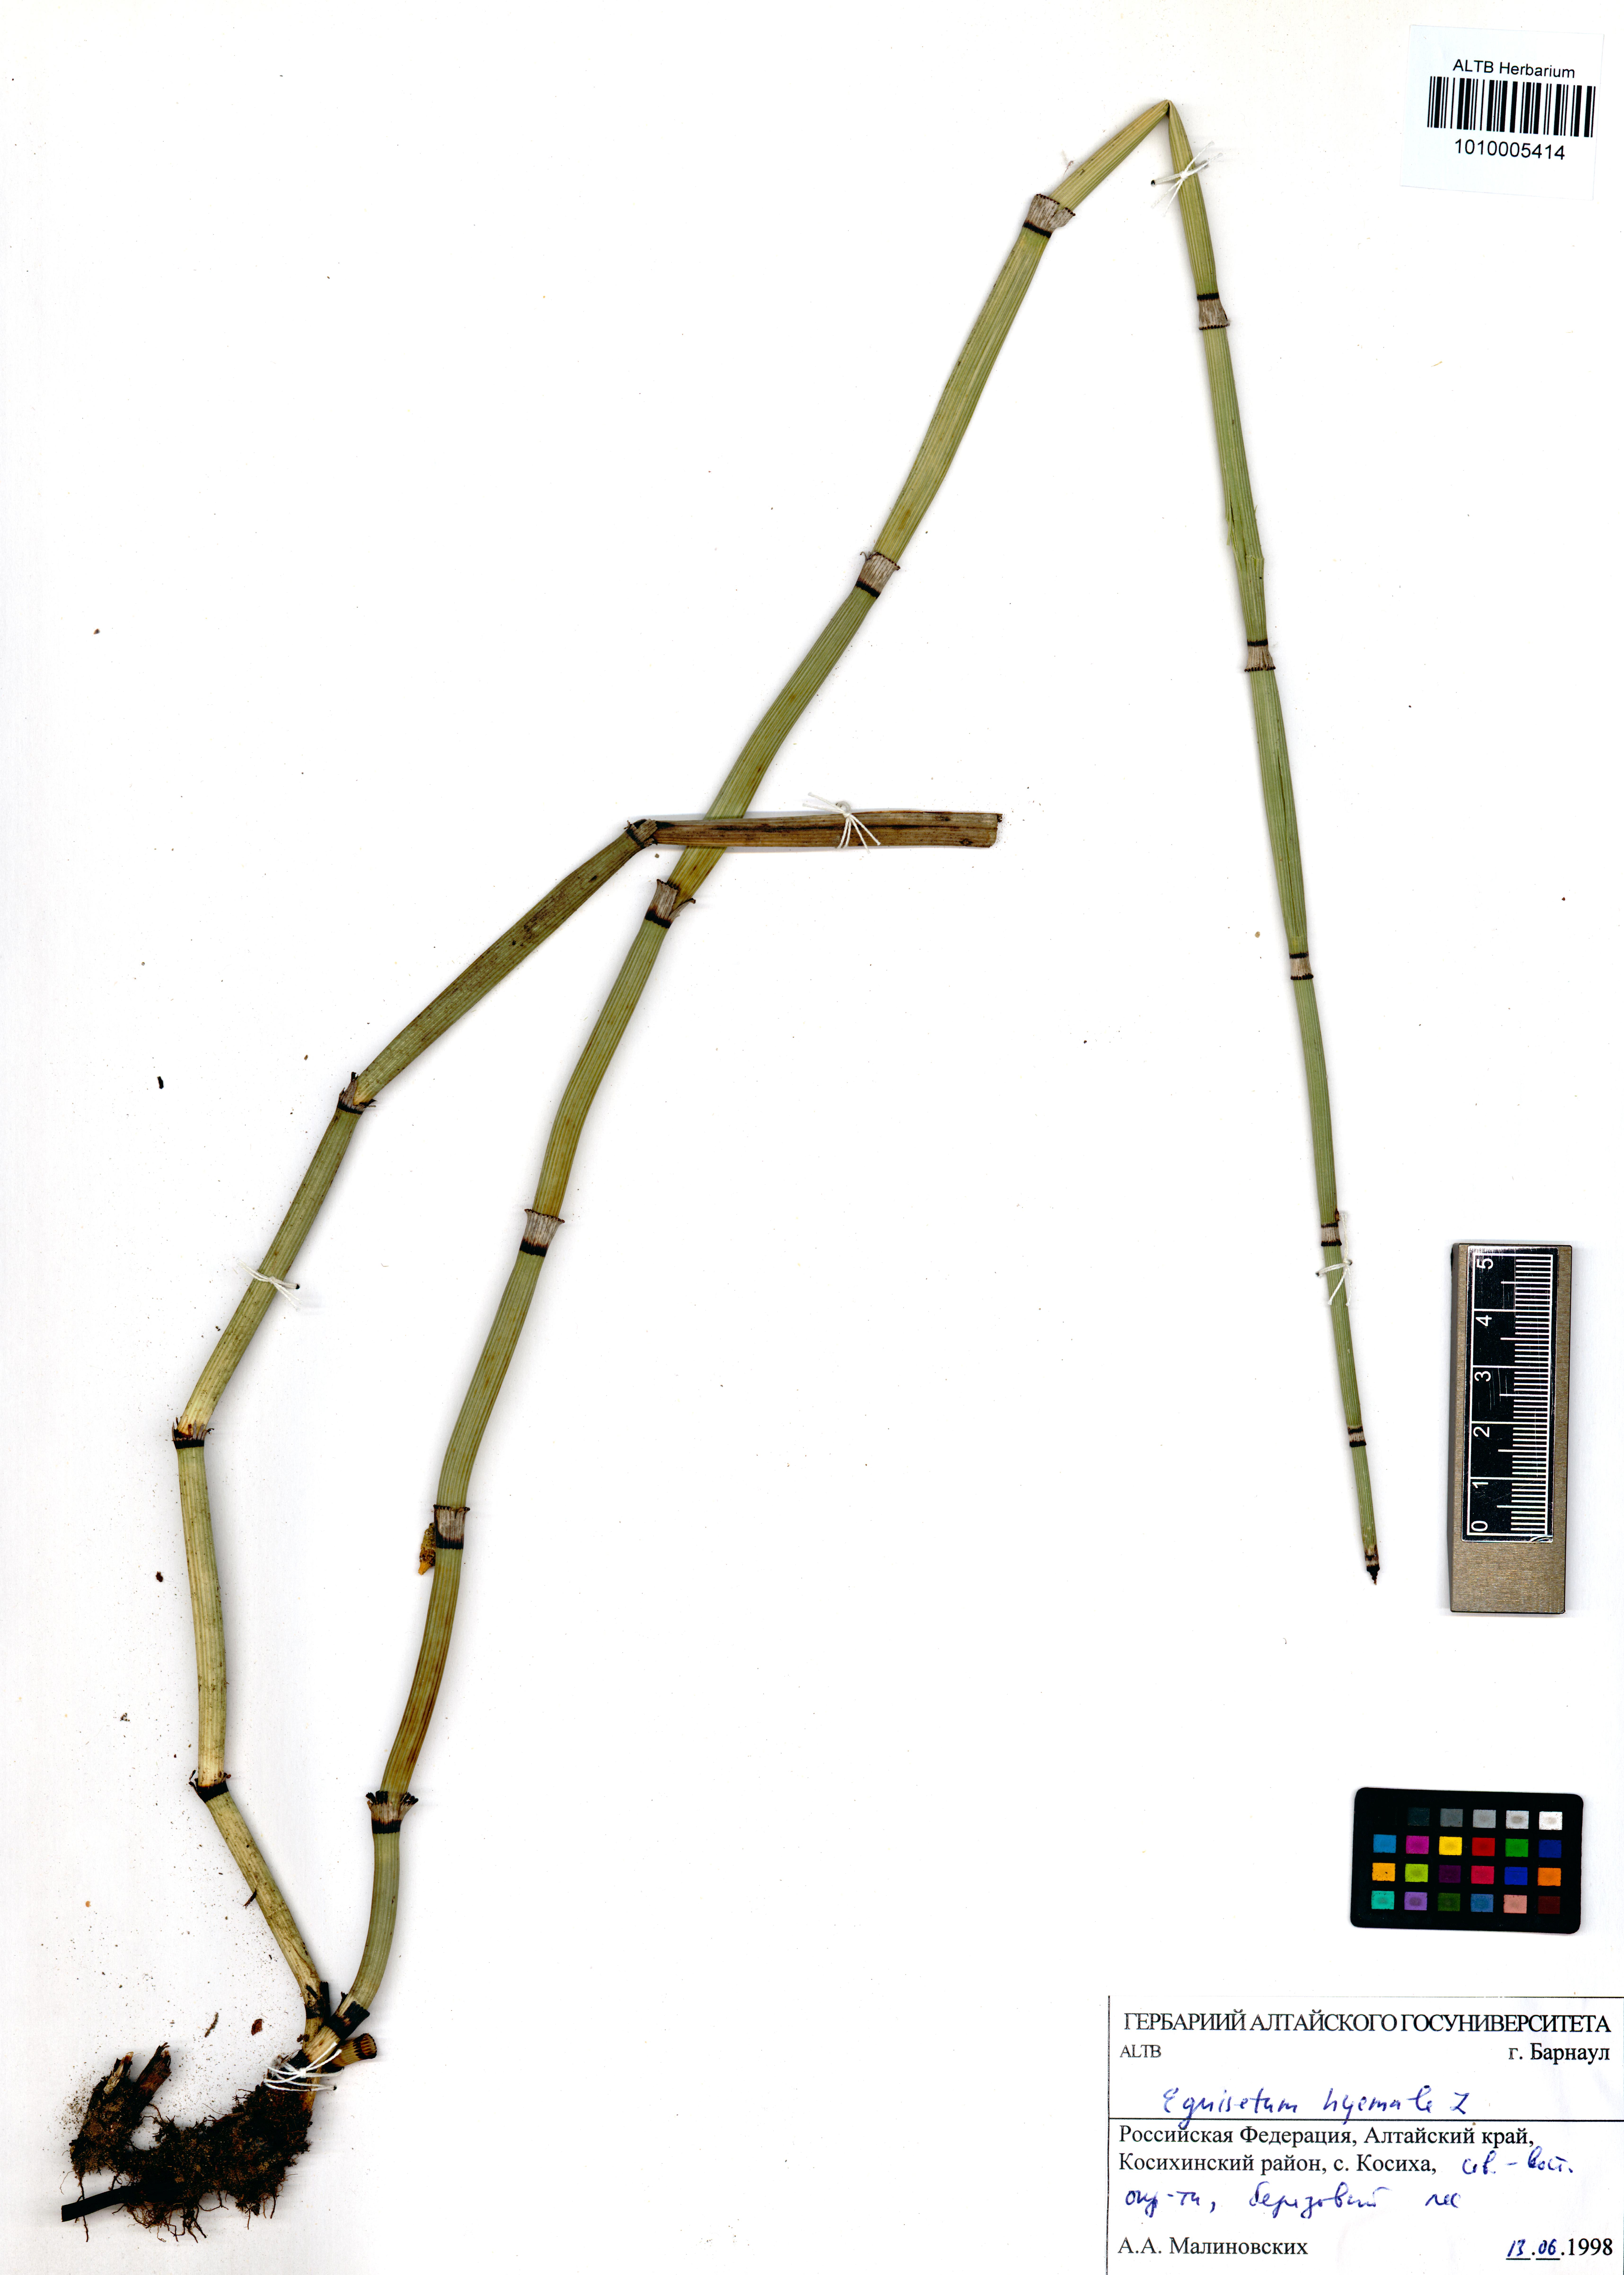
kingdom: Plantae
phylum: Tracheophyta
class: Polypodiopsida
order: Equisetales
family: Equisetaceae
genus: Equisetum
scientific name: Equisetum hyemale
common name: Rough horsetail
